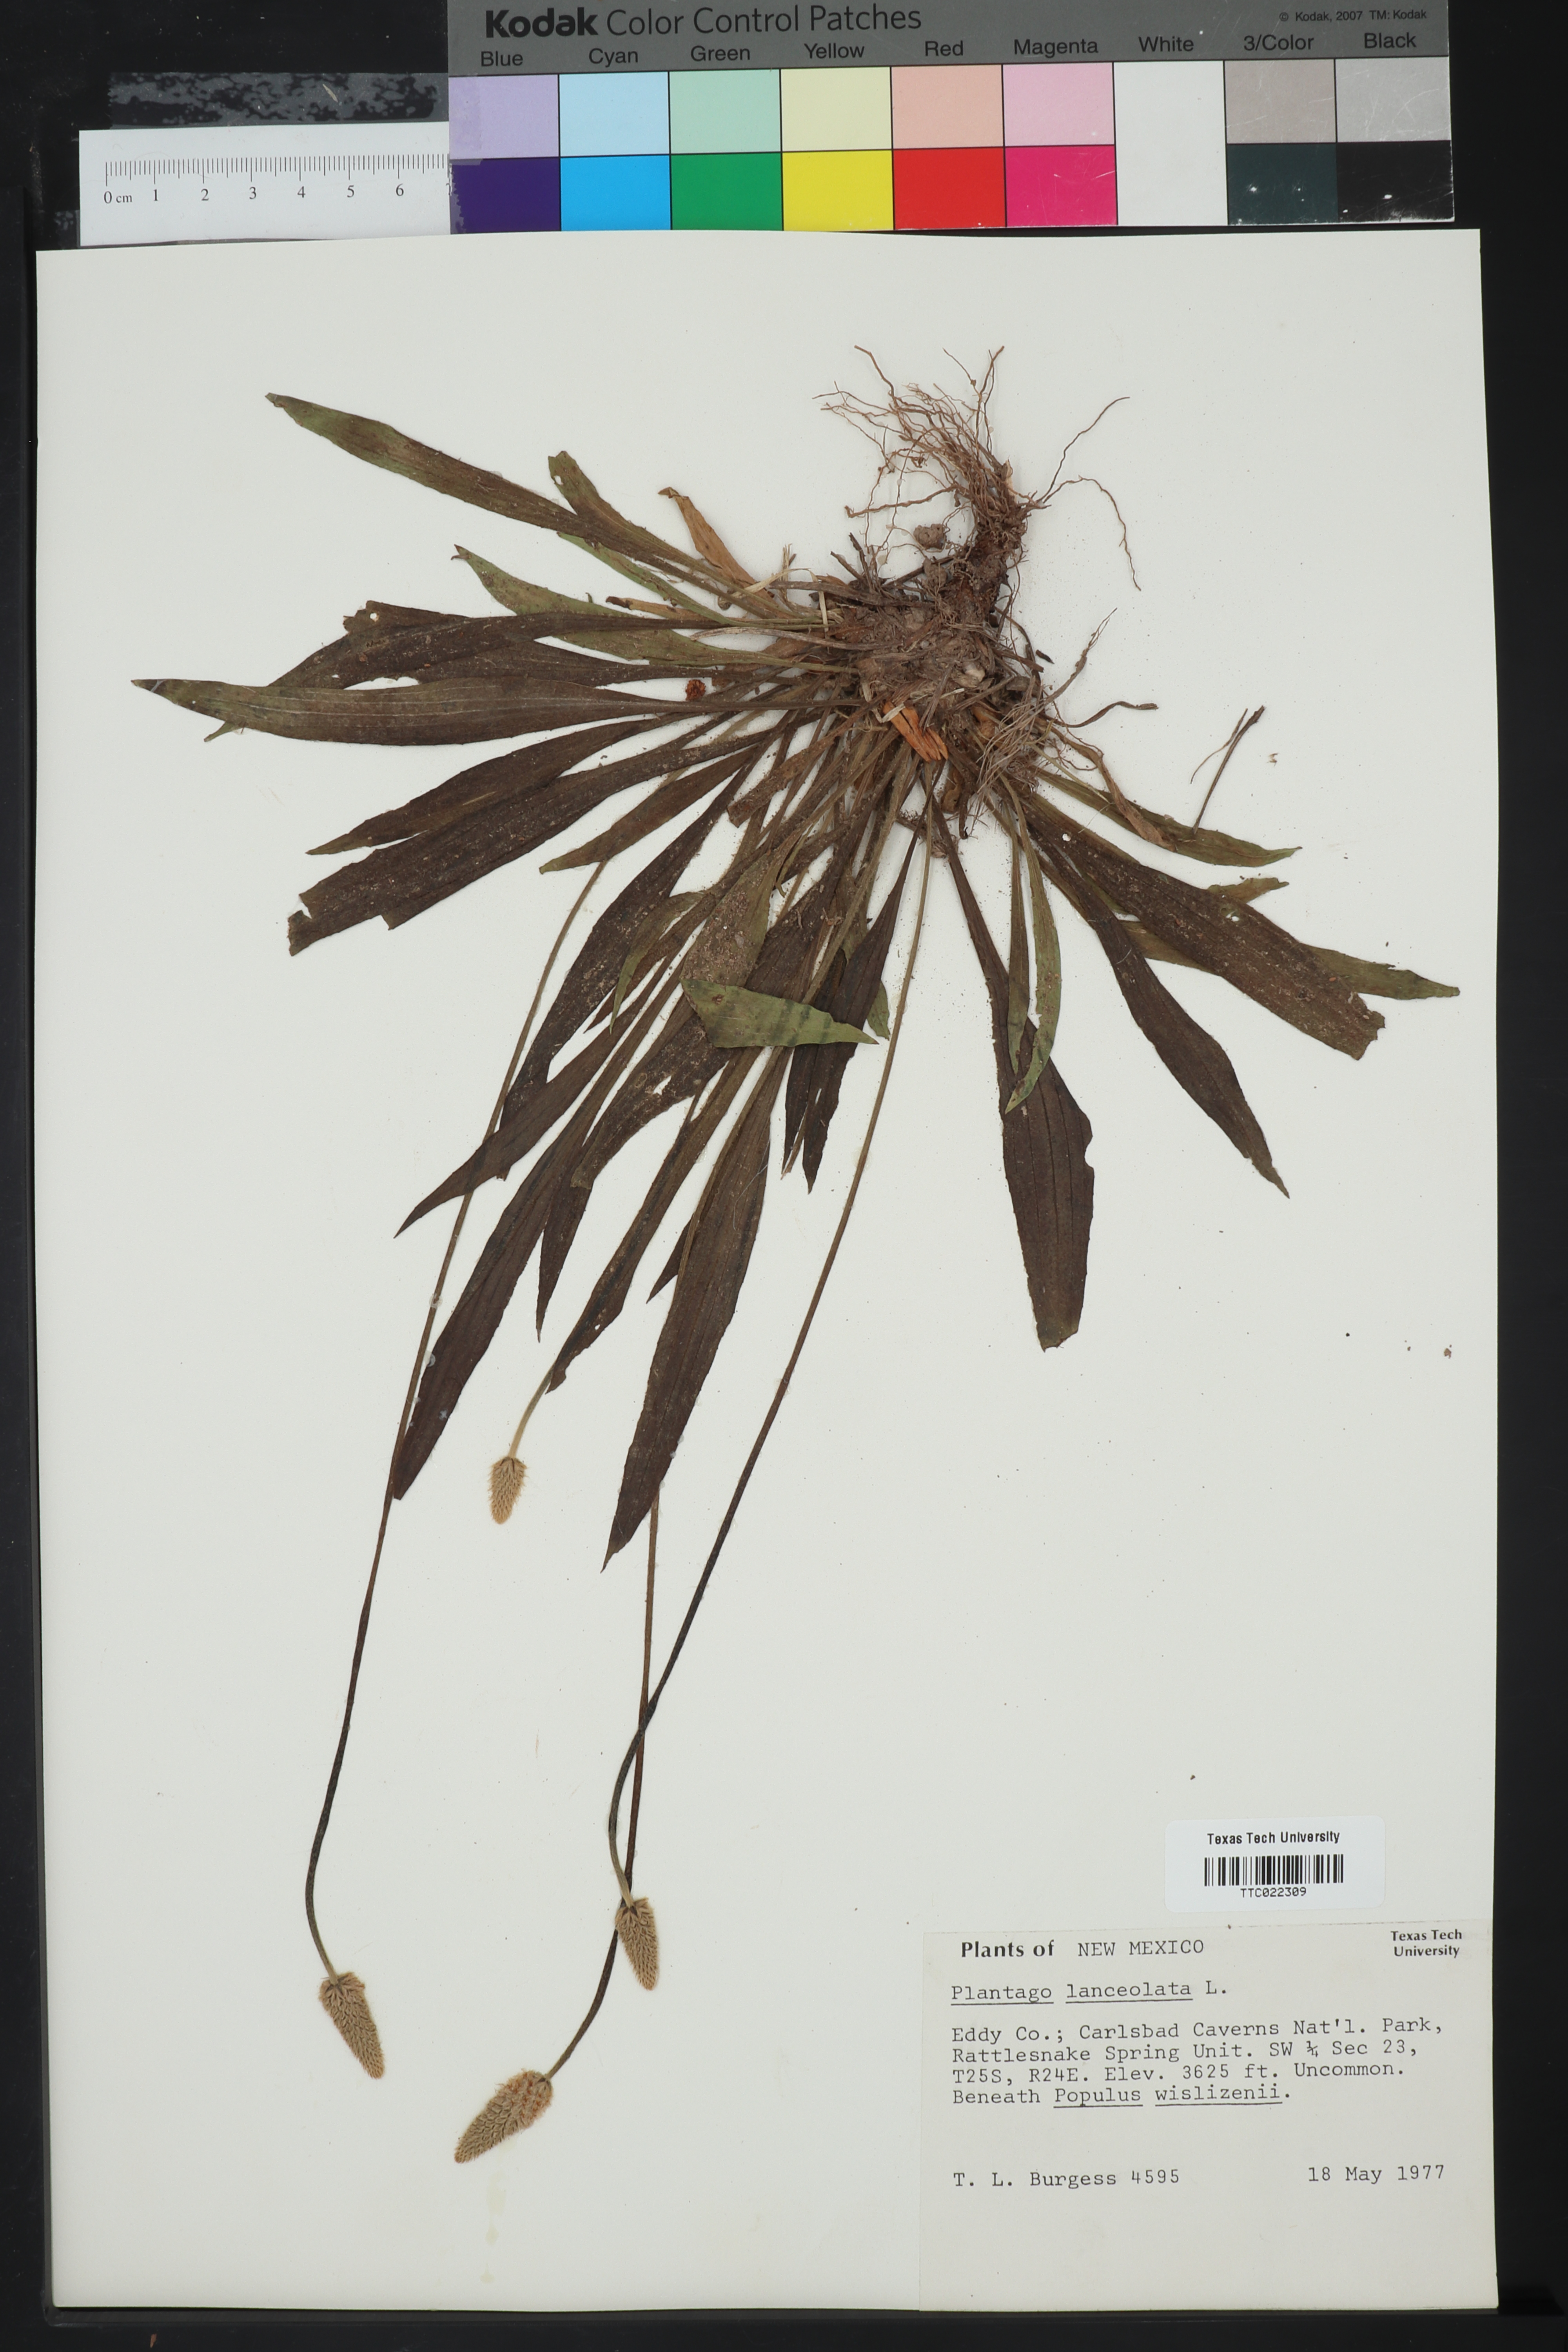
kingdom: Plantae
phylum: Tracheophyta
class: Magnoliopsida
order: Lamiales
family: Plantaginaceae
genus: Plantago
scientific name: Plantago lanceolata
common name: Ribwort plantain
